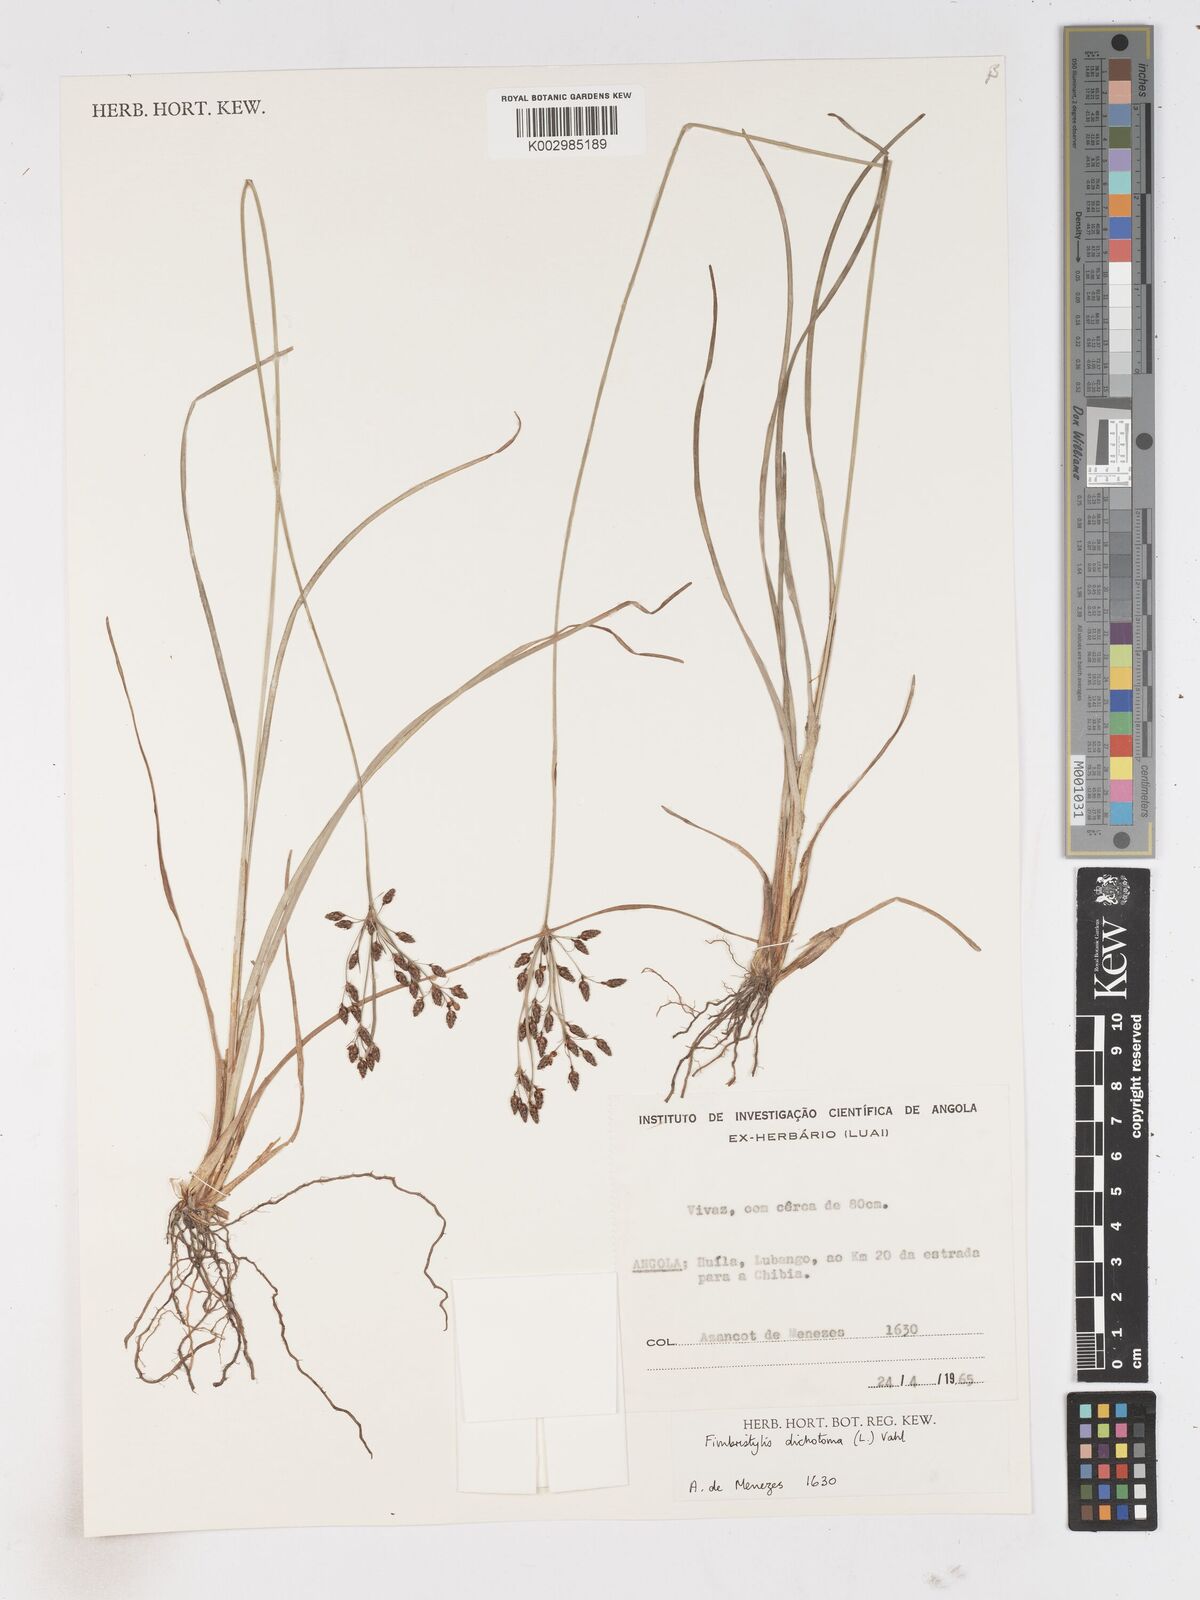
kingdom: Plantae
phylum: Tracheophyta
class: Liliopsida
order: Poales
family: Cyperaceae
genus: Fimbristylis
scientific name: Fimbristylis dichotoma
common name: Forked fimbry
